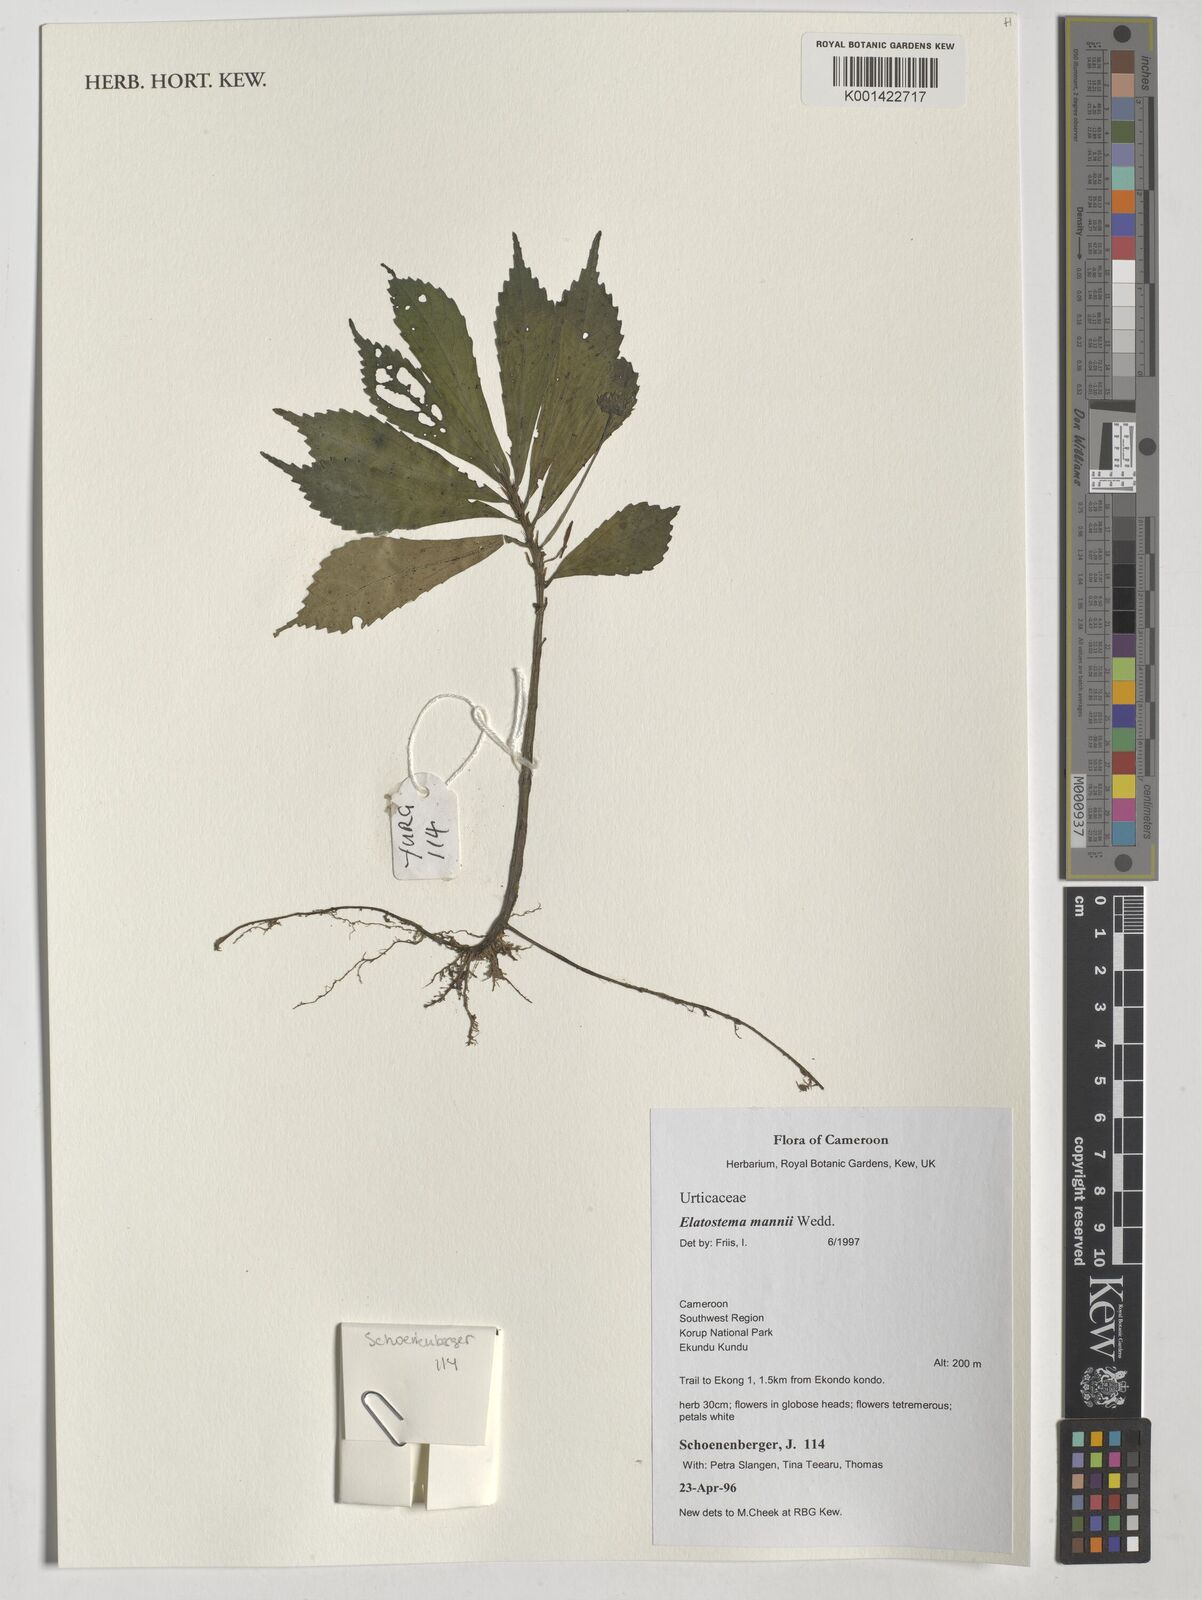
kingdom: Plantae
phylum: Tracheophyta
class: Magnoliopsida
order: Rosales
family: Urticaceae
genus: Elatostema
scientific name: Elatostema mannii
